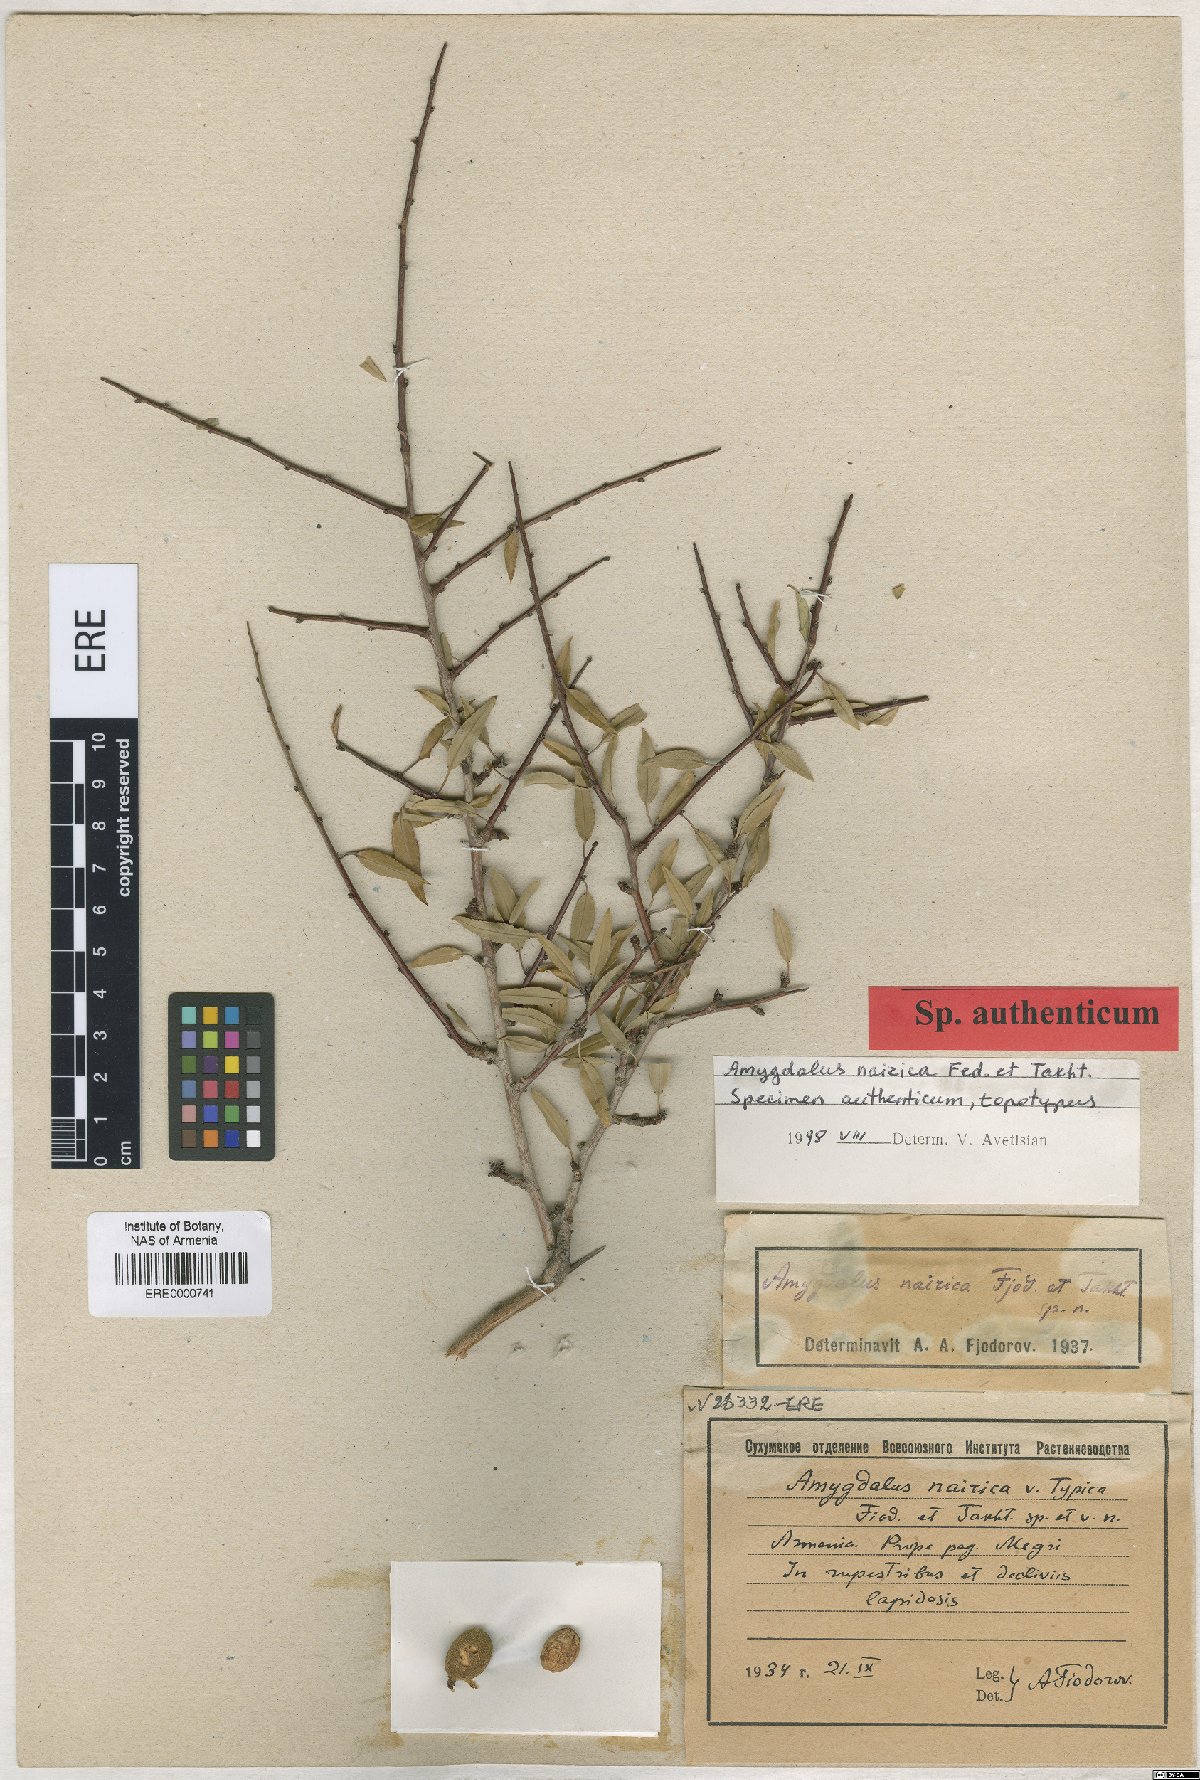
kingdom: Plantae
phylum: Tracheophyta
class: Magnoliopsida
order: Rosales
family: Rosaceae
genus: Prunus
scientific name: Prunus nairica
